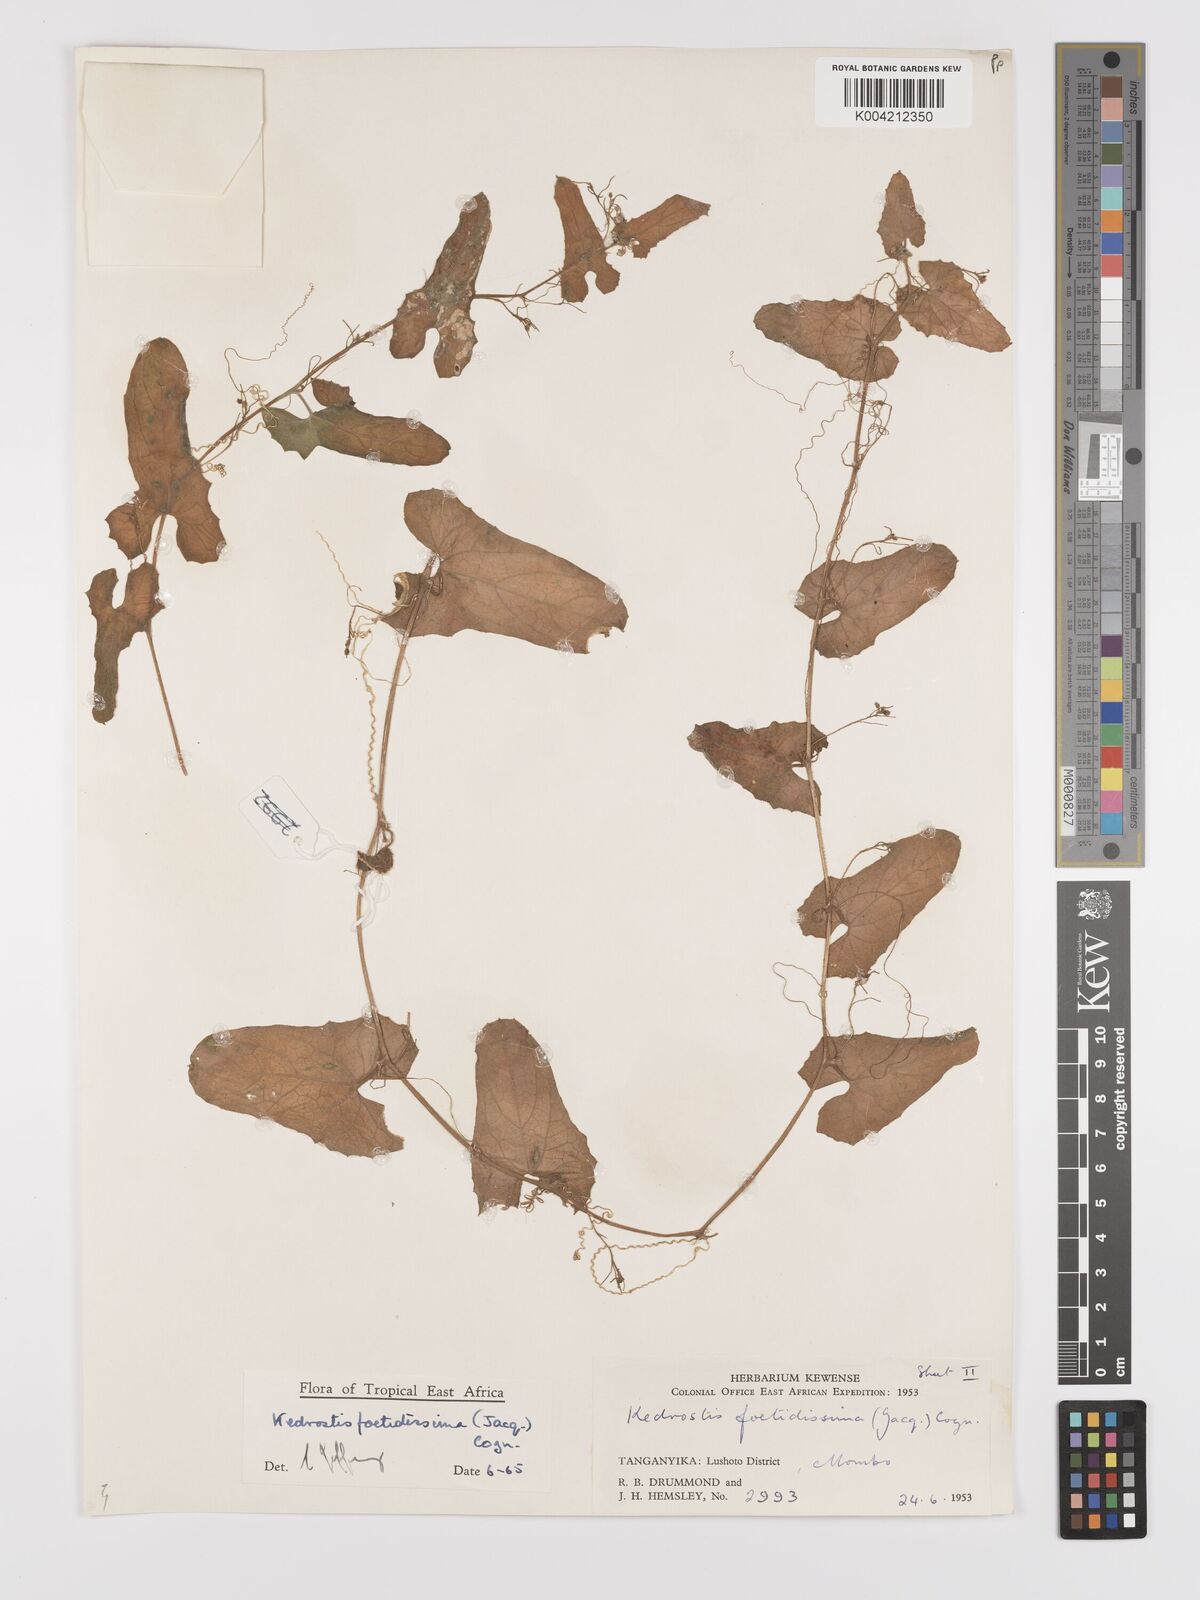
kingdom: Plantae
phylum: Tracheophyta
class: Magnoliopsida
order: Cucurbitales
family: Cucurbitaceae
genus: Kedrostis
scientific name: Kedrostis foetidissima
